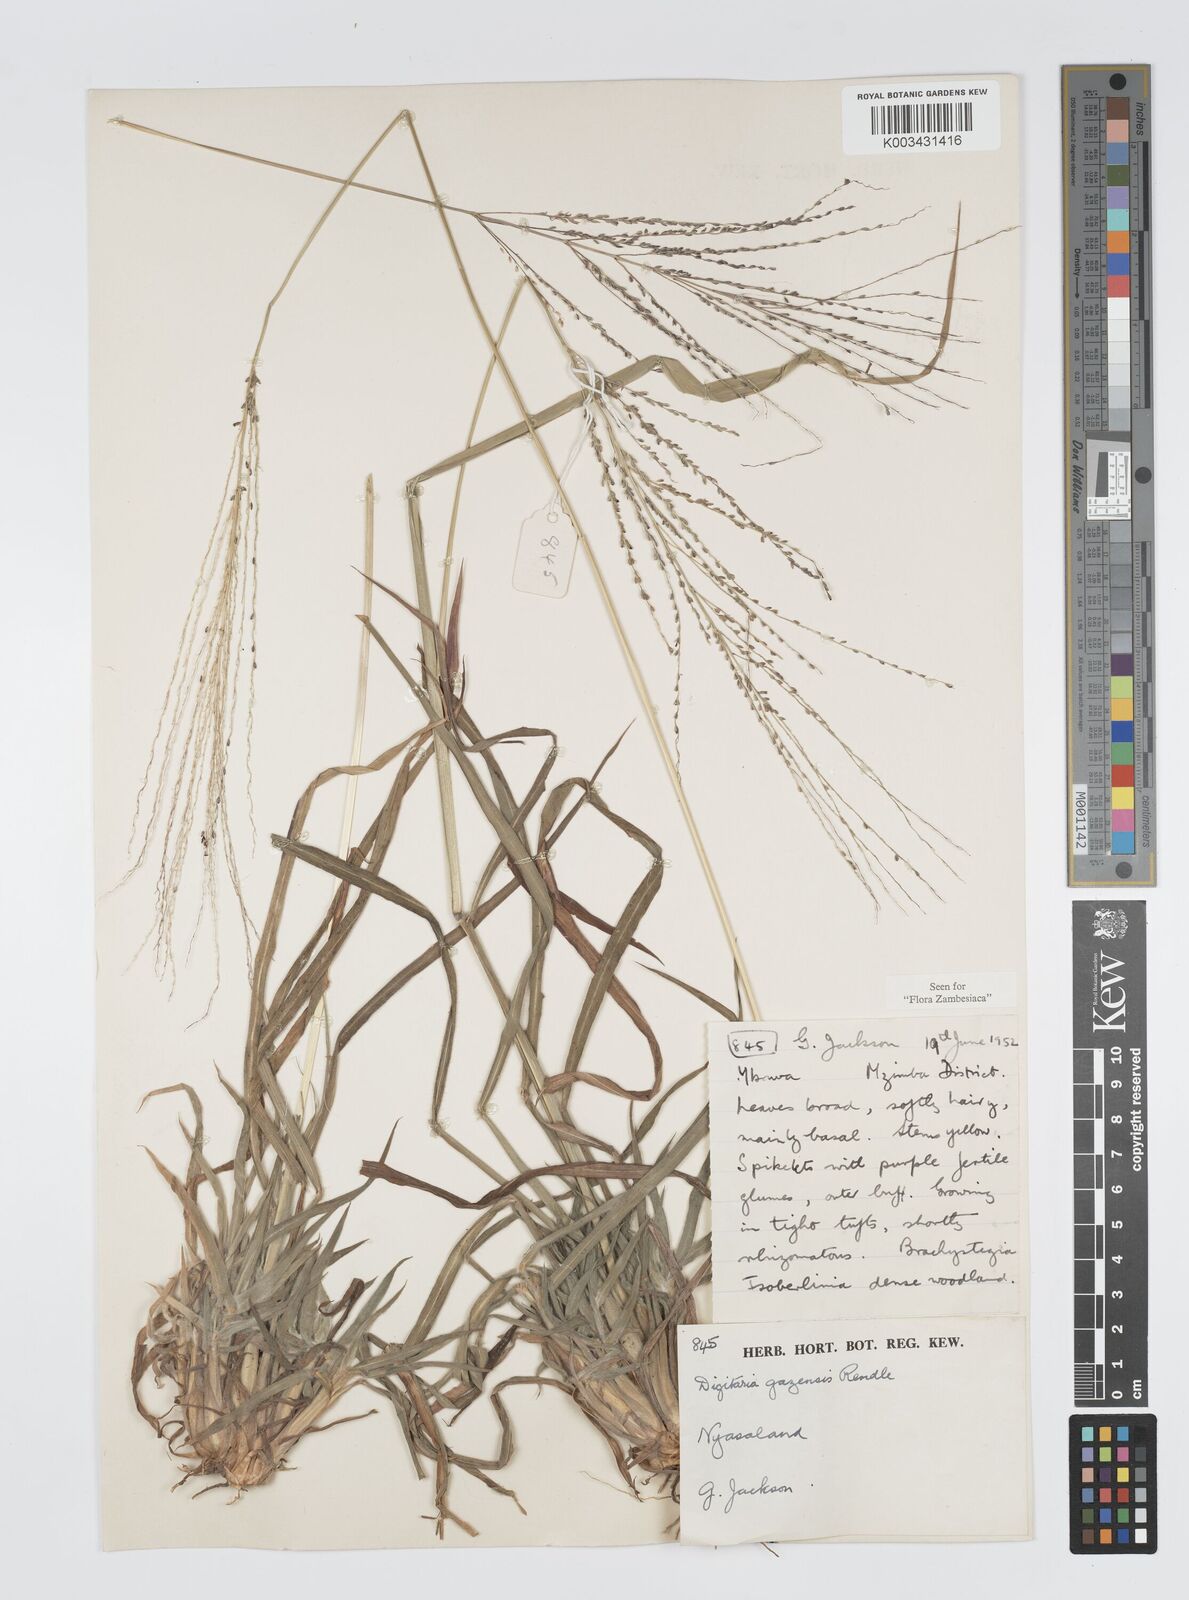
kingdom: Plantae
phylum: Tracheophyta
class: Liliopsida
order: Poales
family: Poaceae
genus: Digitaria
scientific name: Digitaria gazensis
